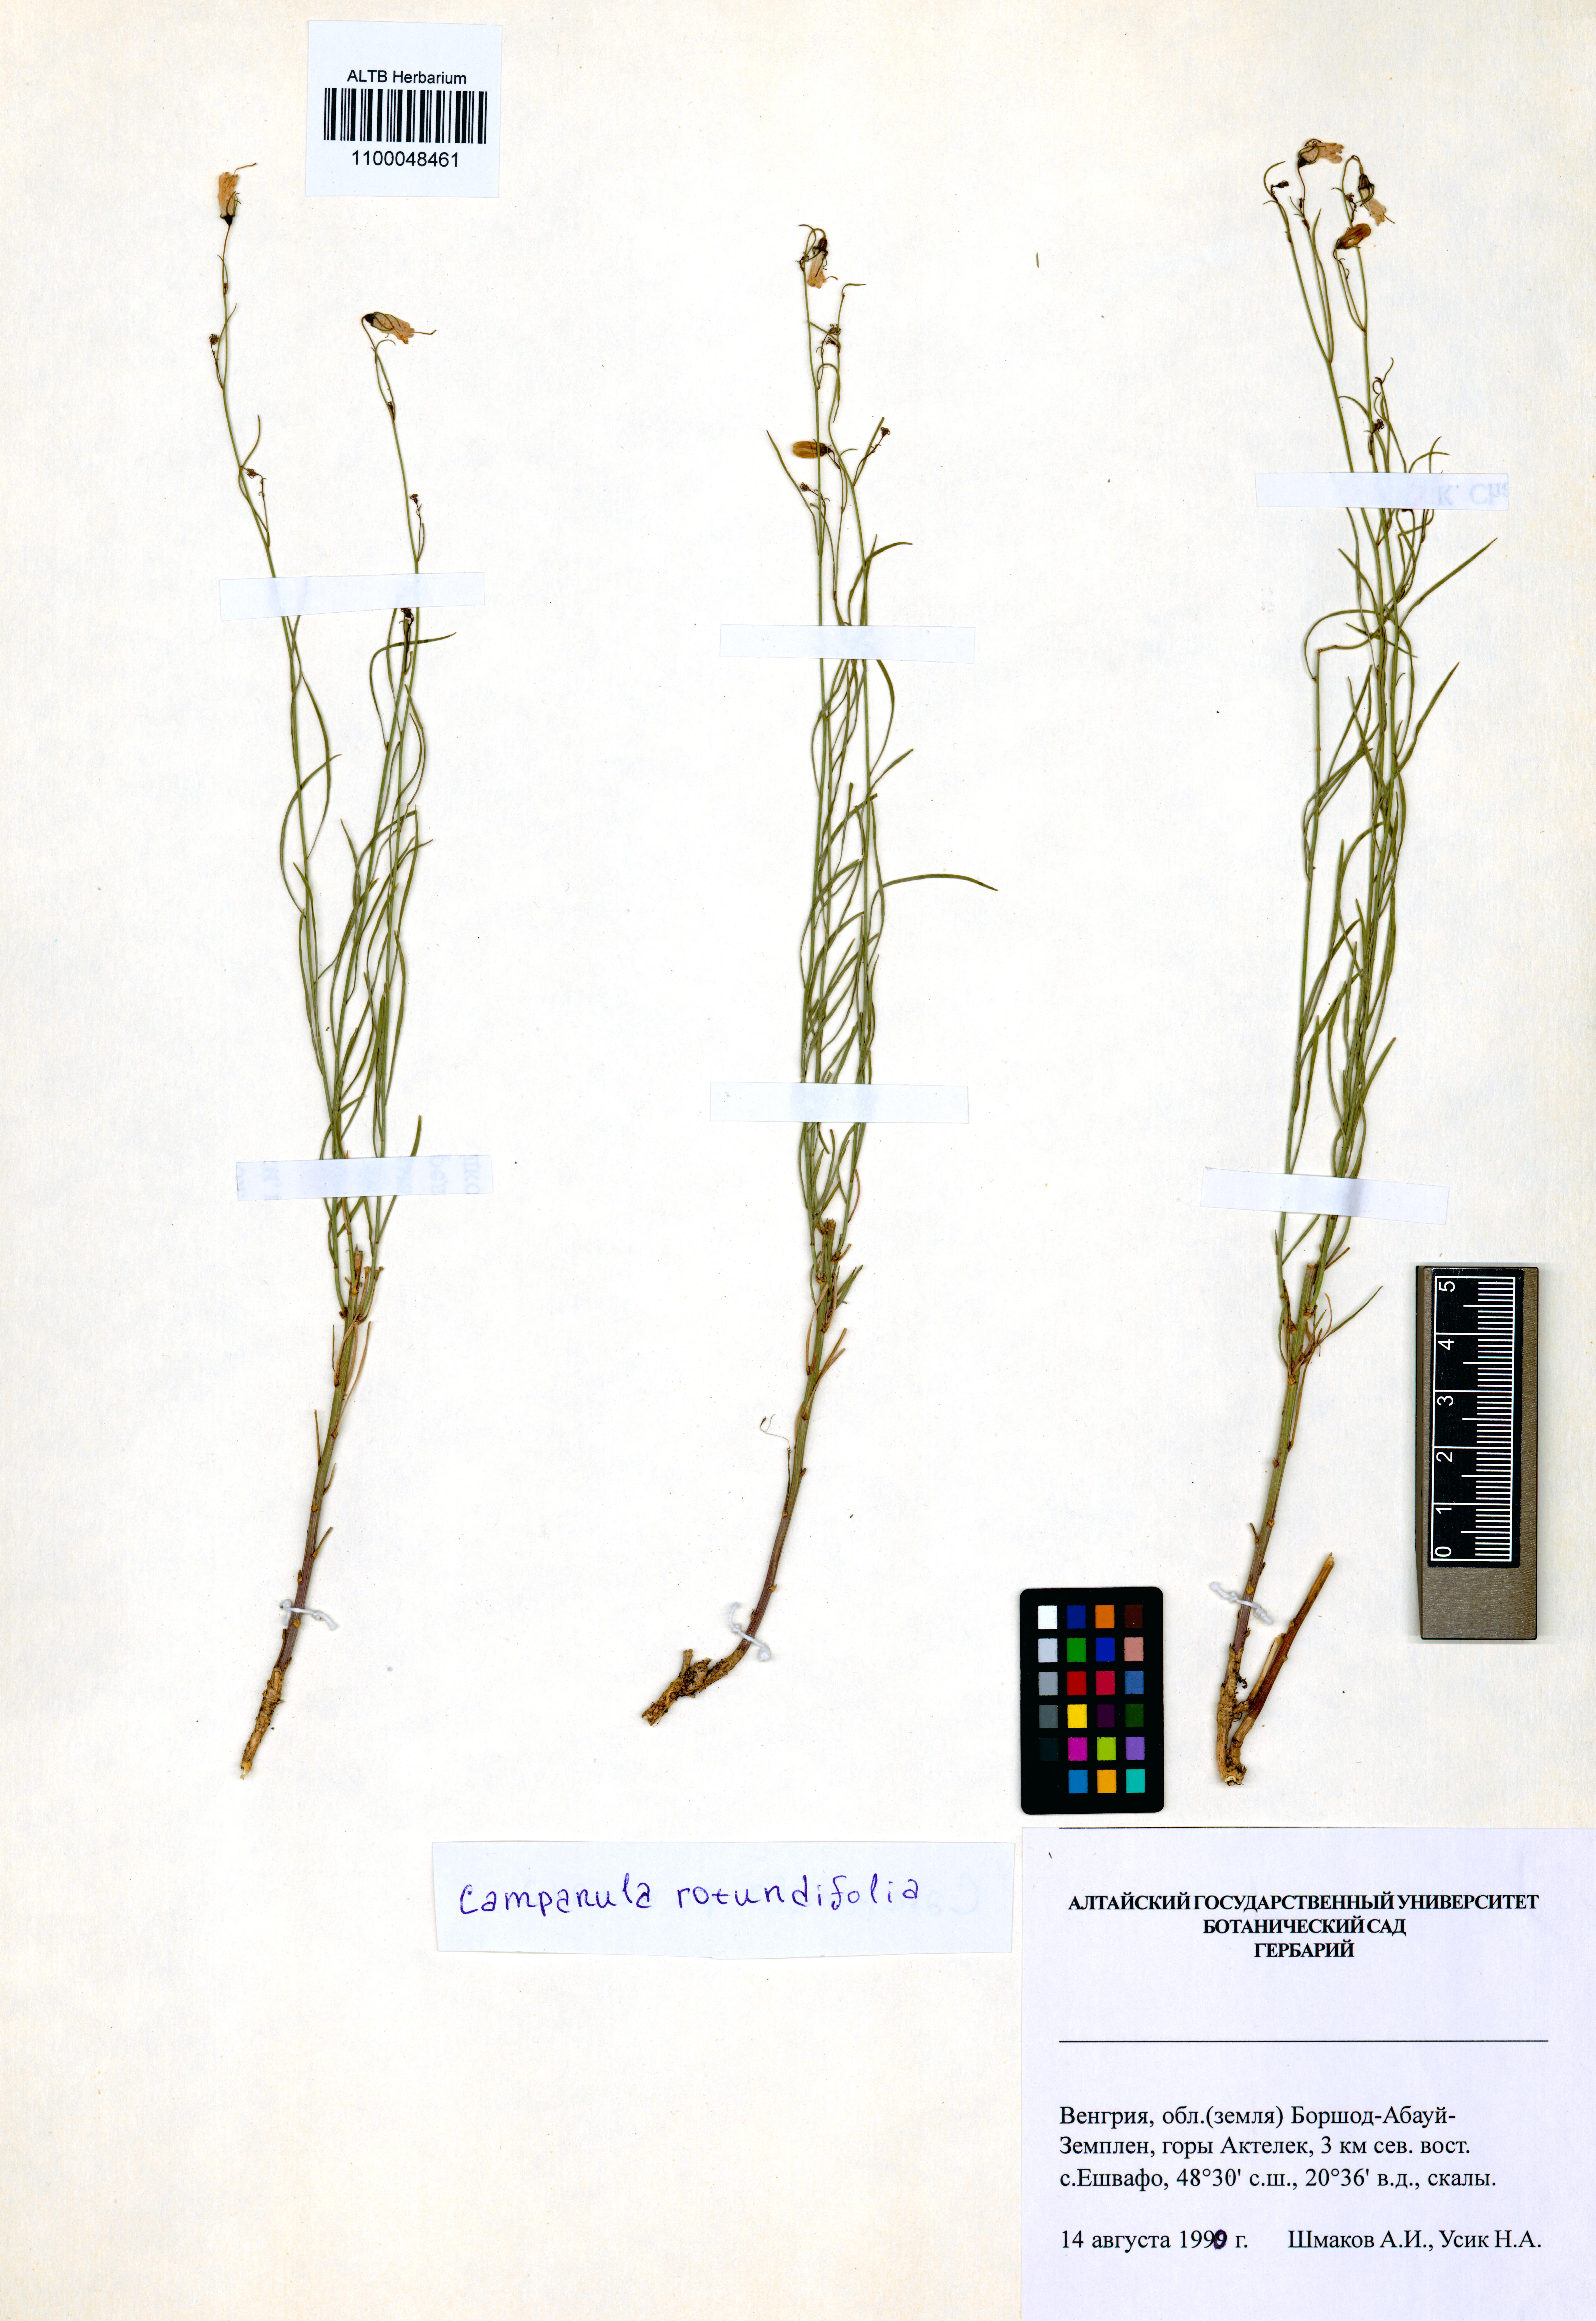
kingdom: Plantae
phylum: Tracheophyta
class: Magnoliopsida
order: Asterales
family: Campanulaceae
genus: Campanula
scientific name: Campanula rotundifolia
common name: Harebell
